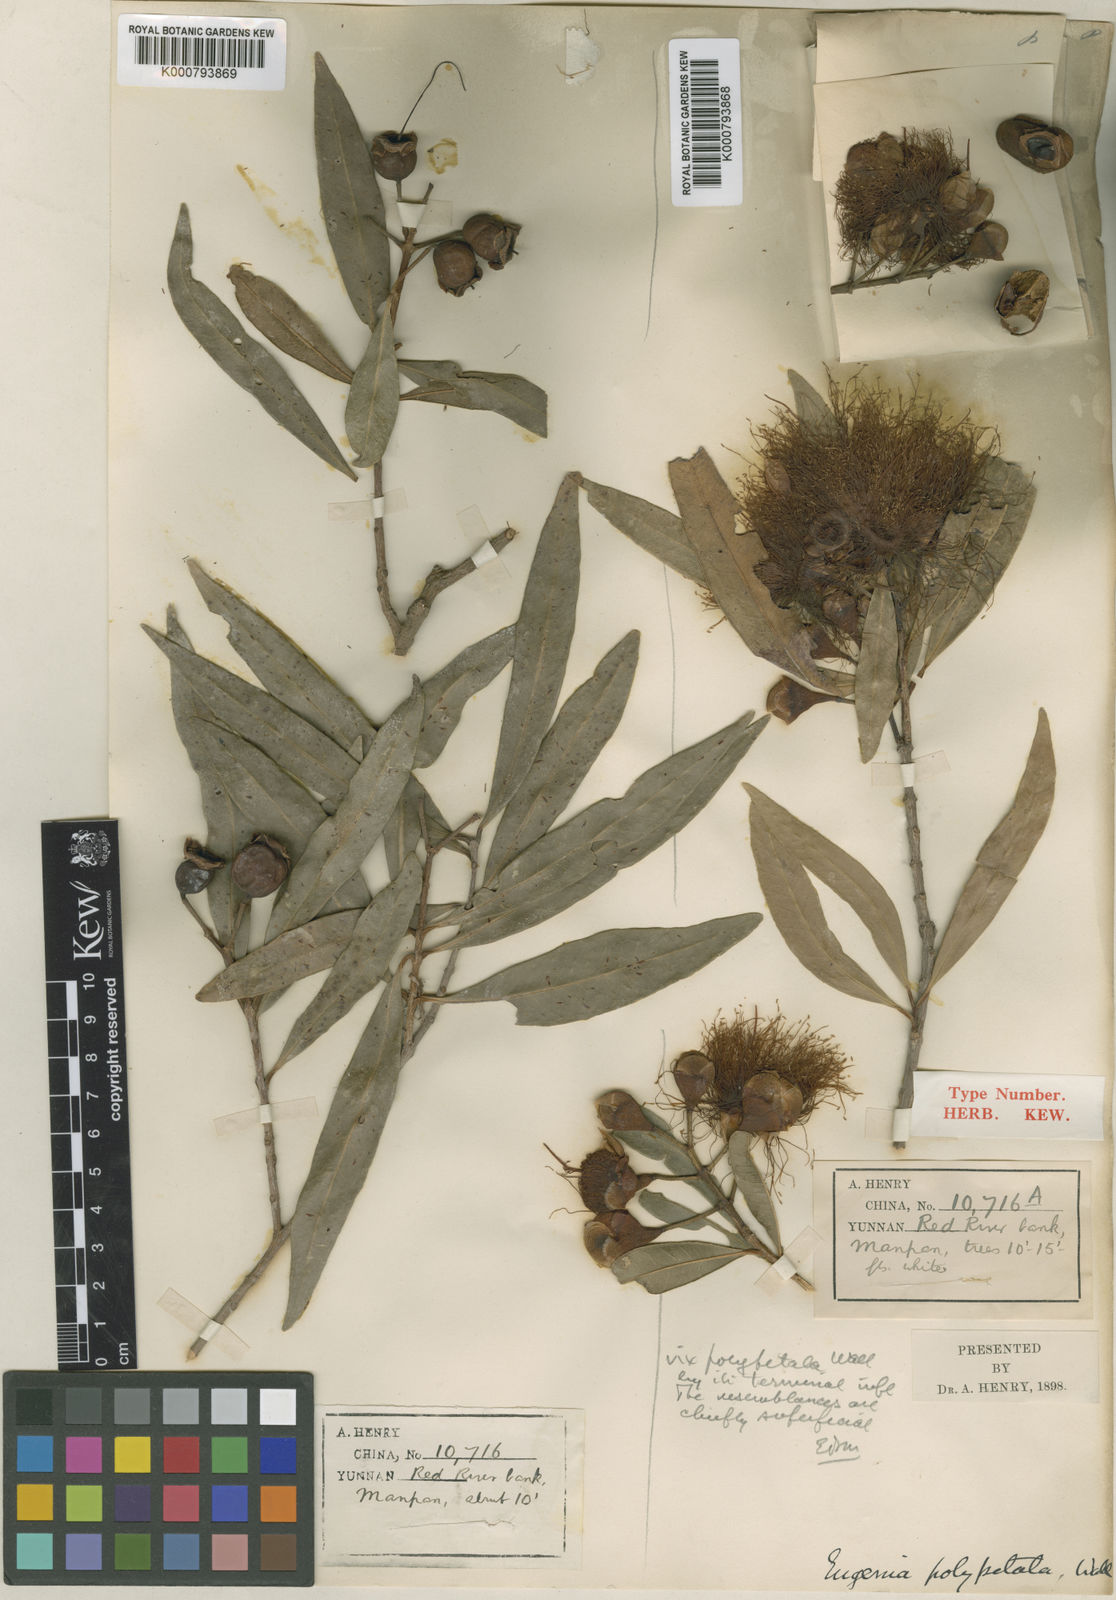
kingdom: Plantae
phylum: Tracheophyta
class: Magnoliopsida
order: Myrtales
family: Myrtaceae
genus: Syzygium
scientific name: Syzygium polypetaloideum
